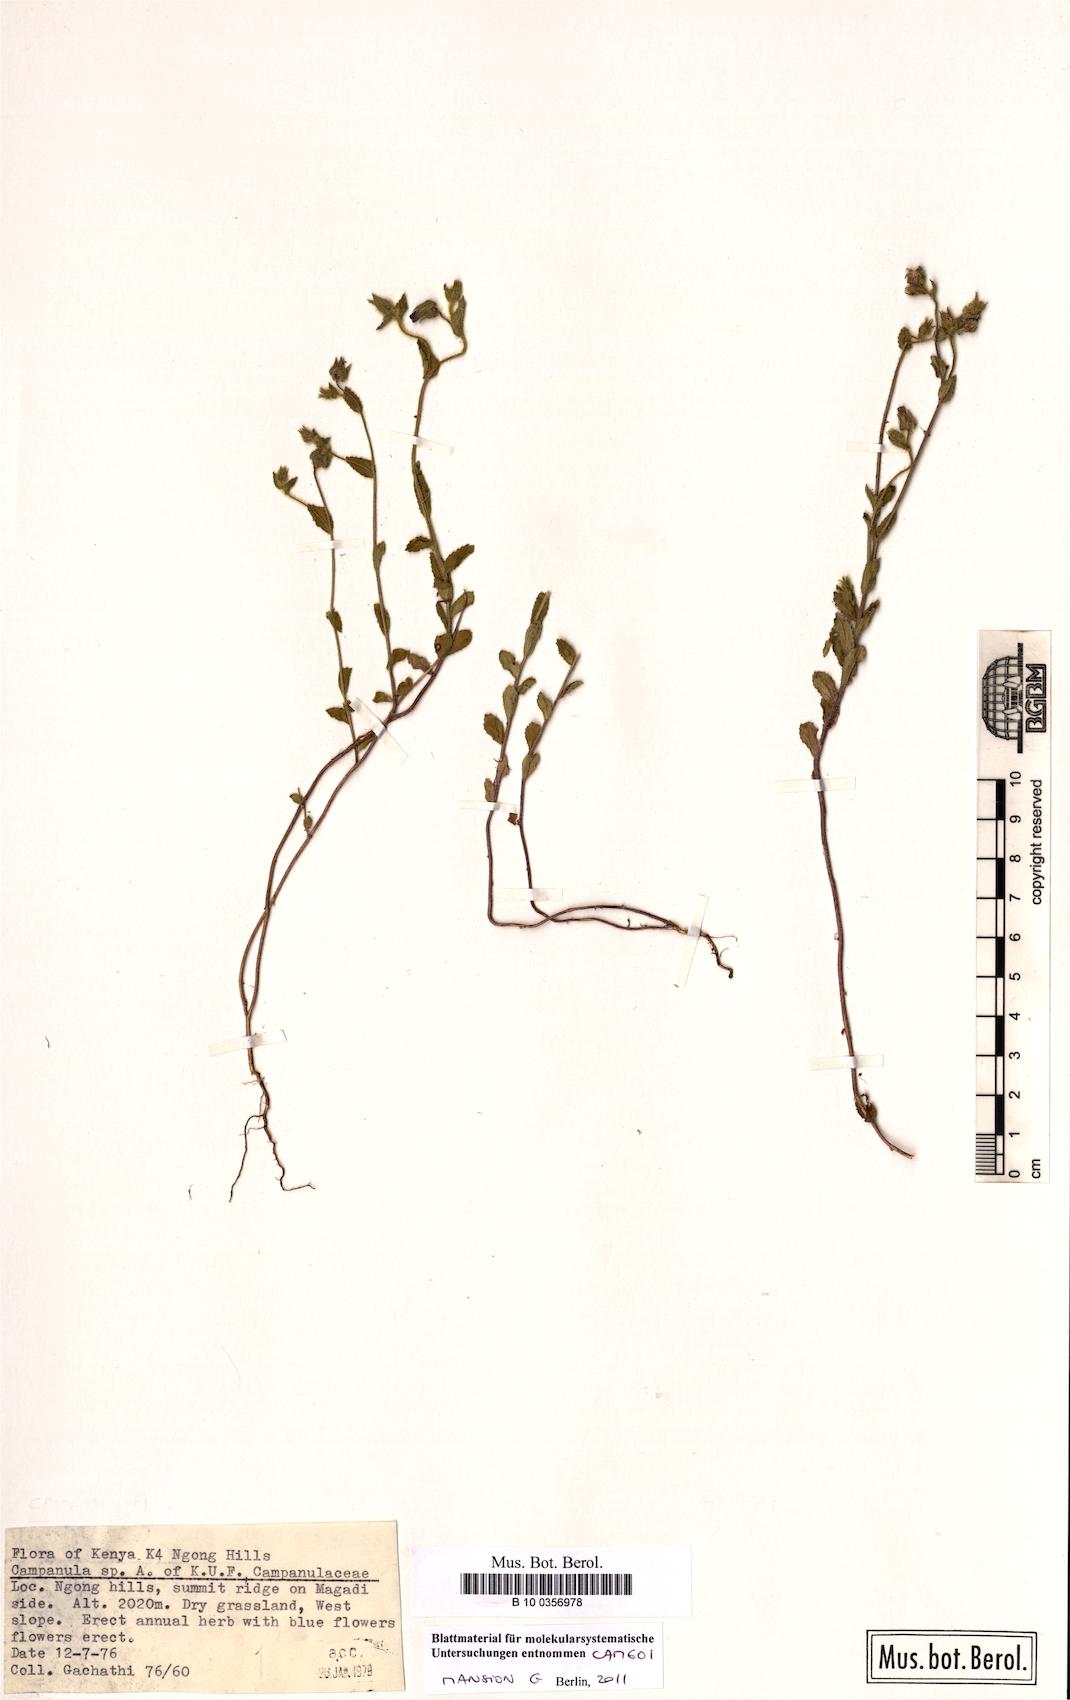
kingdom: Plantae
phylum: Tracheophyta
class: Magnoliopsida
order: Asterales
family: Campanulaceae
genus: Campanula
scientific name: Campanula keniensis
